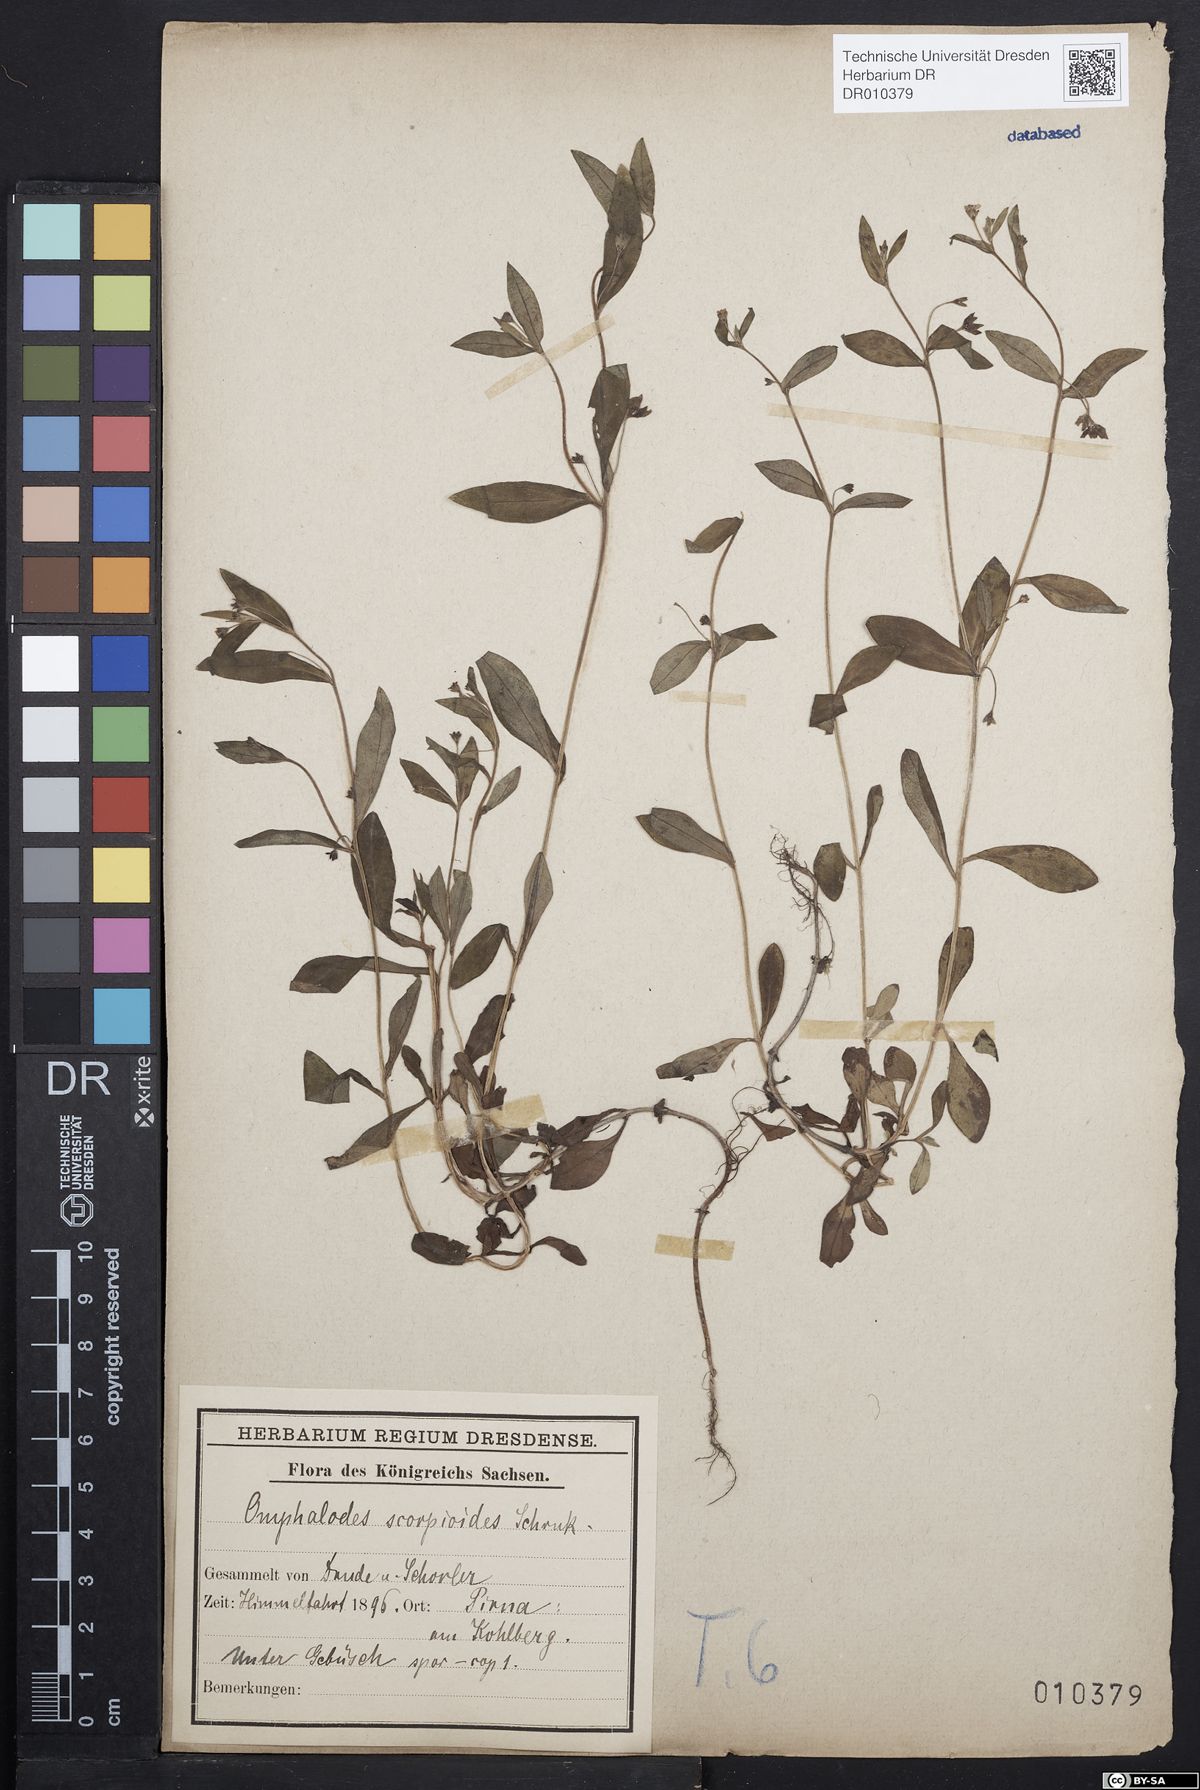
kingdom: Plantae
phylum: Tracheophyta
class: Magnoliopsida
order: Boraginales
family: Boraginaceae
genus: Memoremea
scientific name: Memoremea scorpioides
